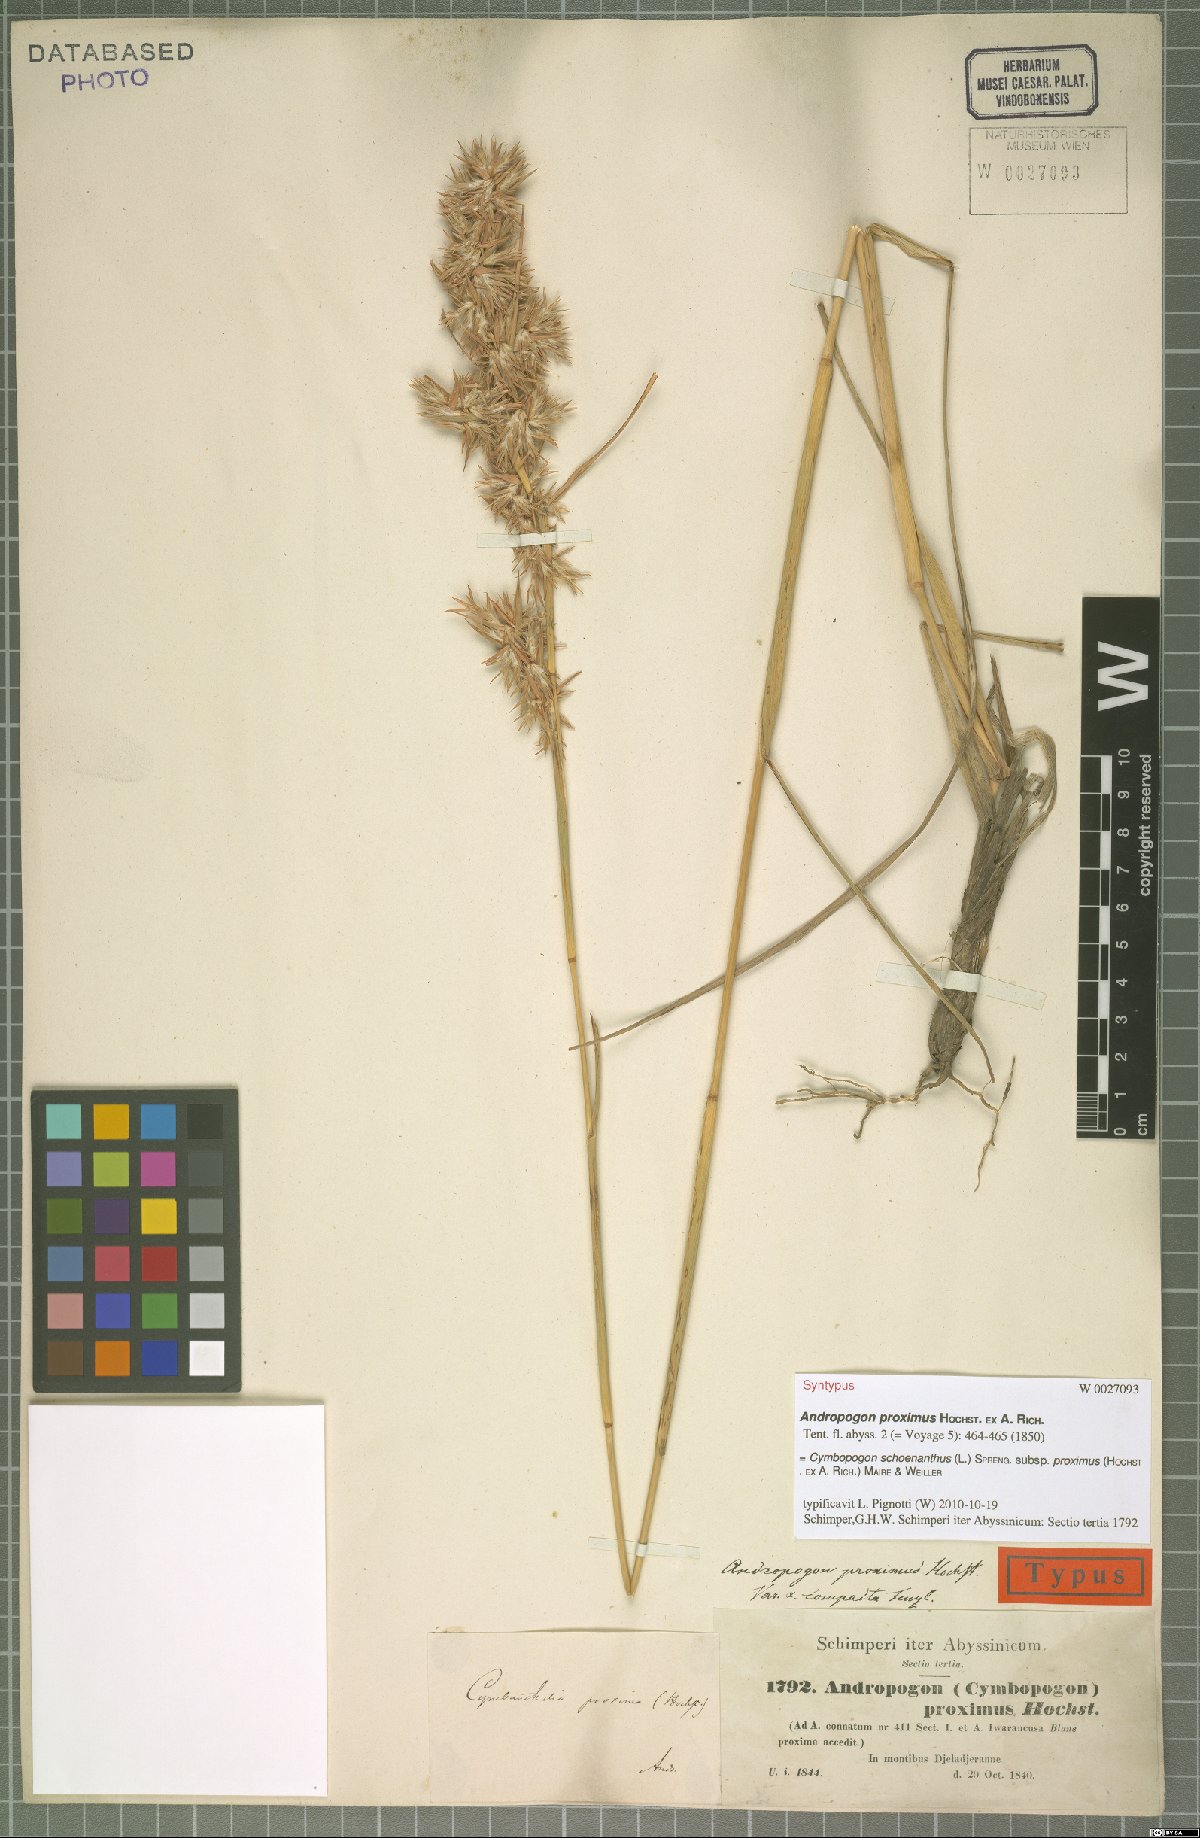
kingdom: Plantae
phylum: Tracheophyta
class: Liliopsida
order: Poales
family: Poaceae
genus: Cymbopogon
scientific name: Cymbopogon schoenanthus
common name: Geranium grass
